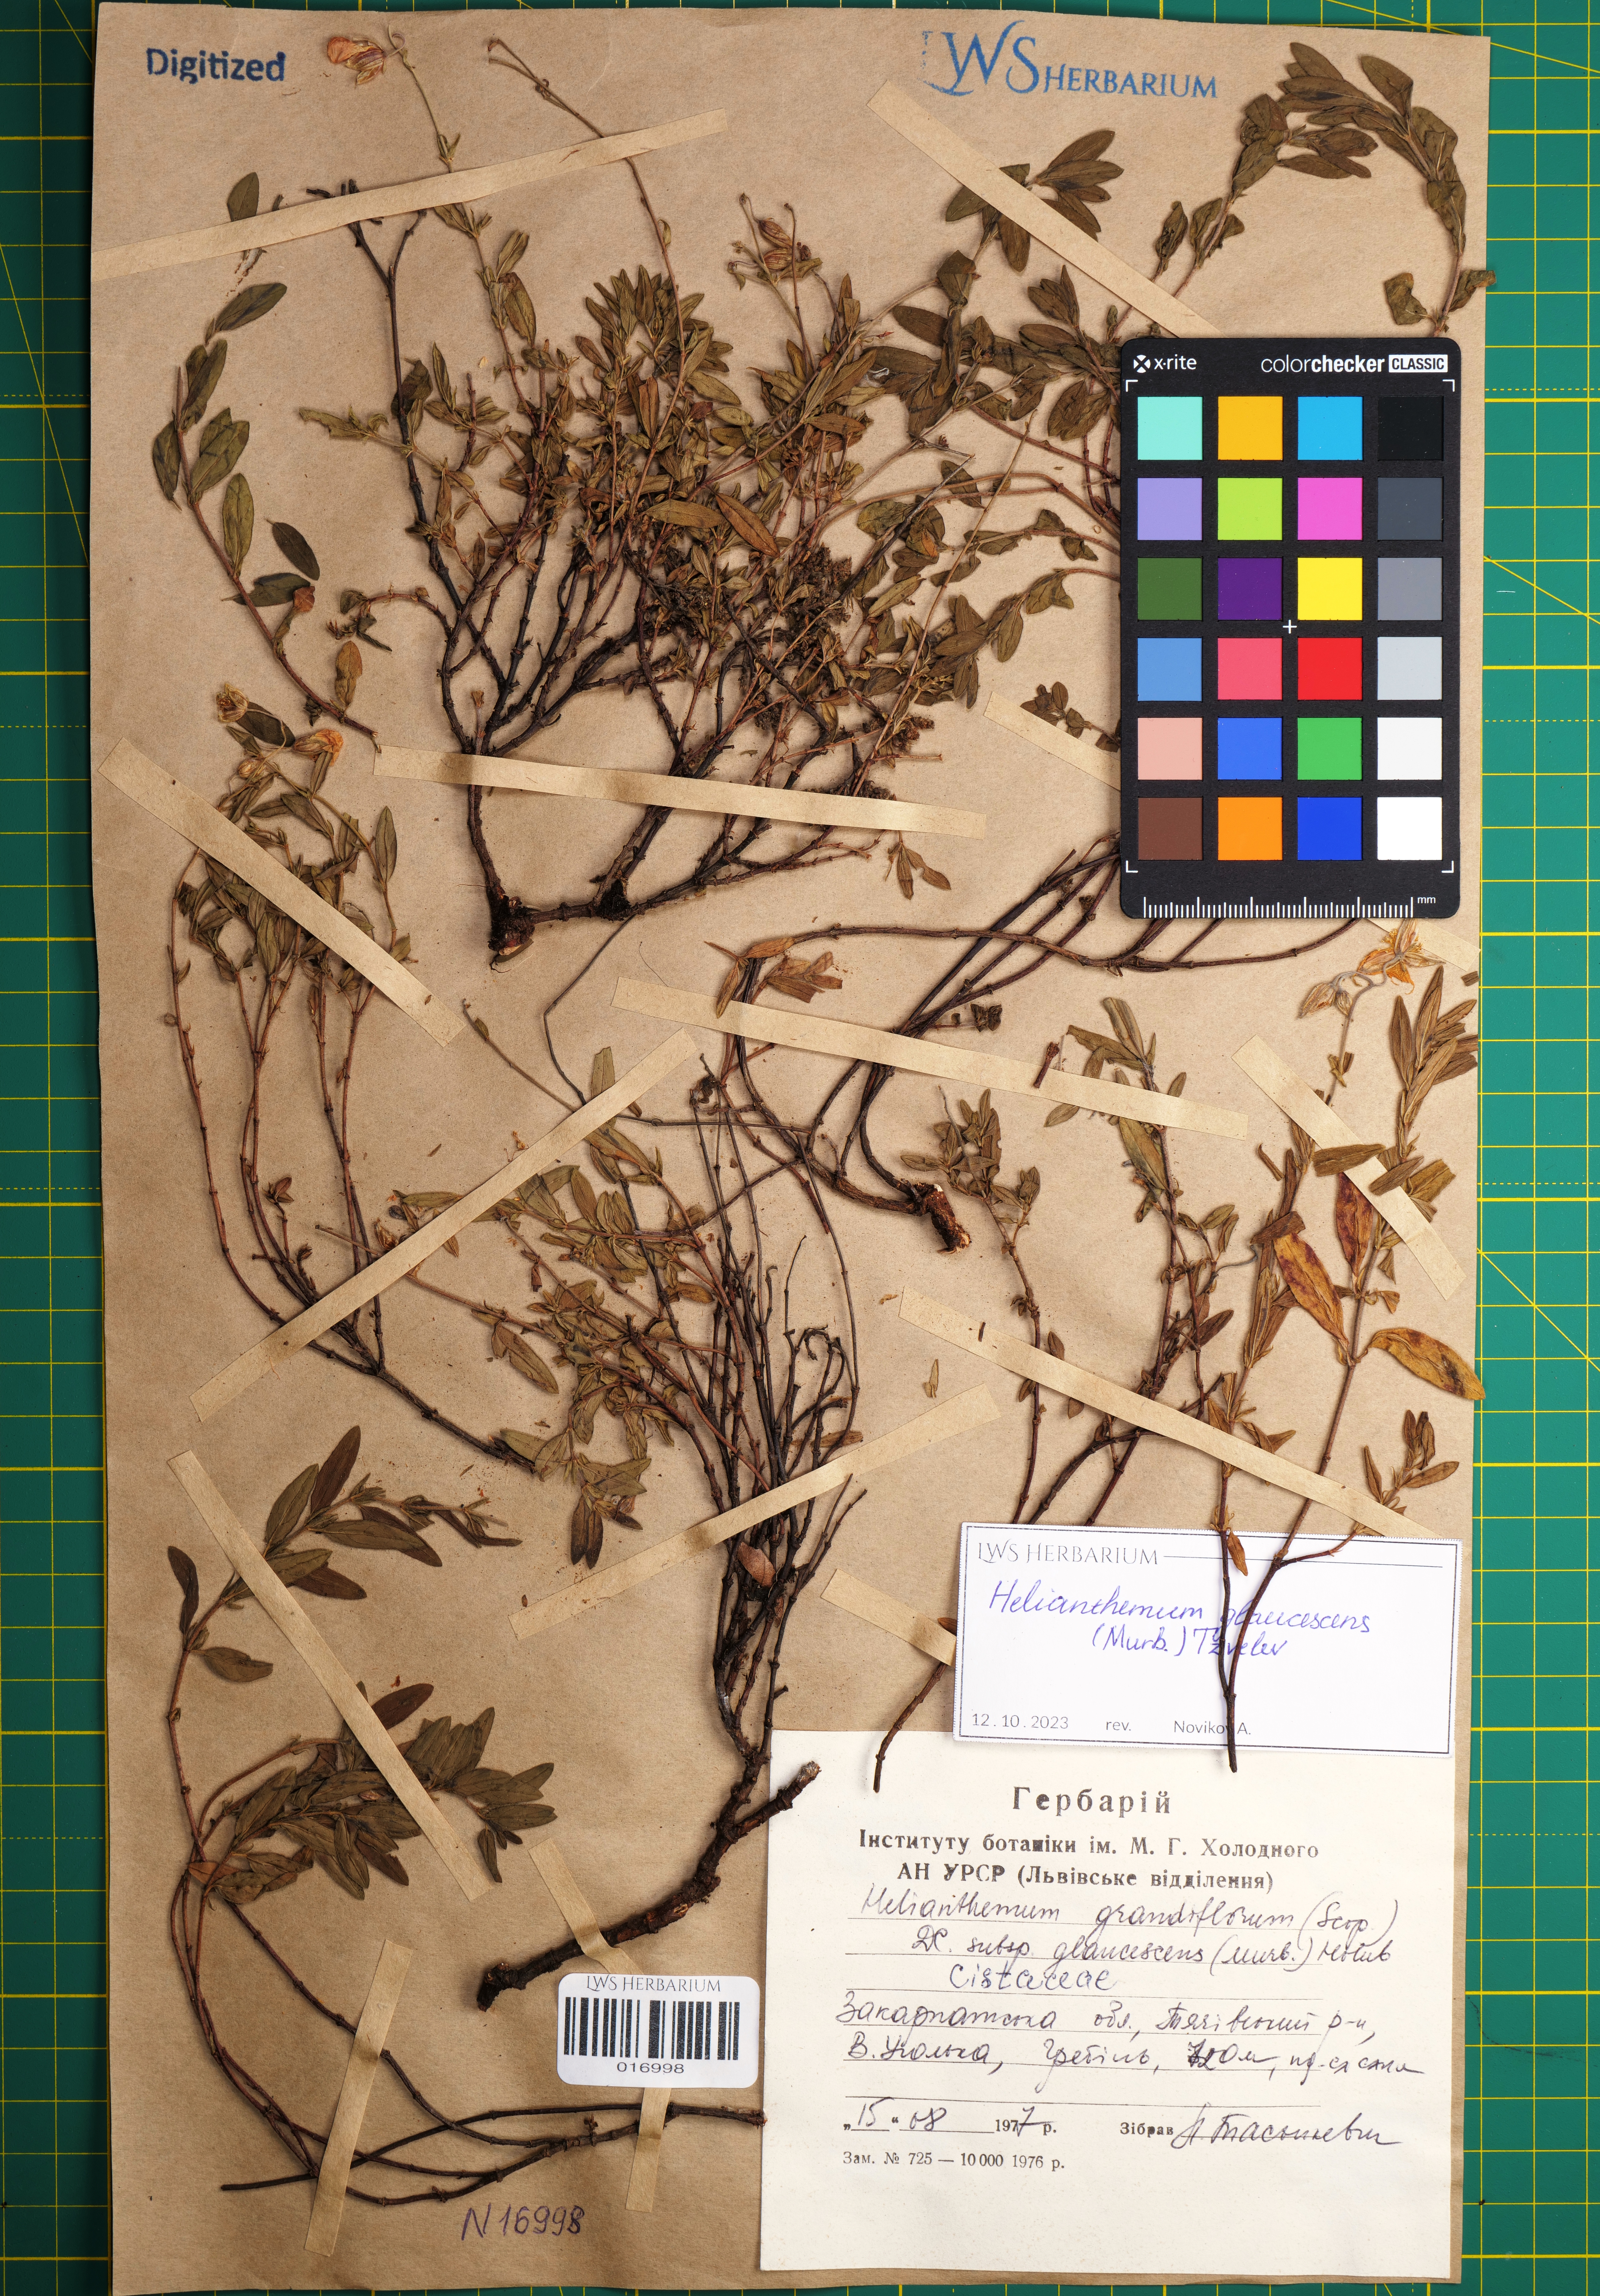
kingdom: Plantae
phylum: Tracheophyta
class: Magnoliopsida
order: Malvales
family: Cistaceae
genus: Helianthemum
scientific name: Helianthemum nummularium
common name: Common rock-rose
